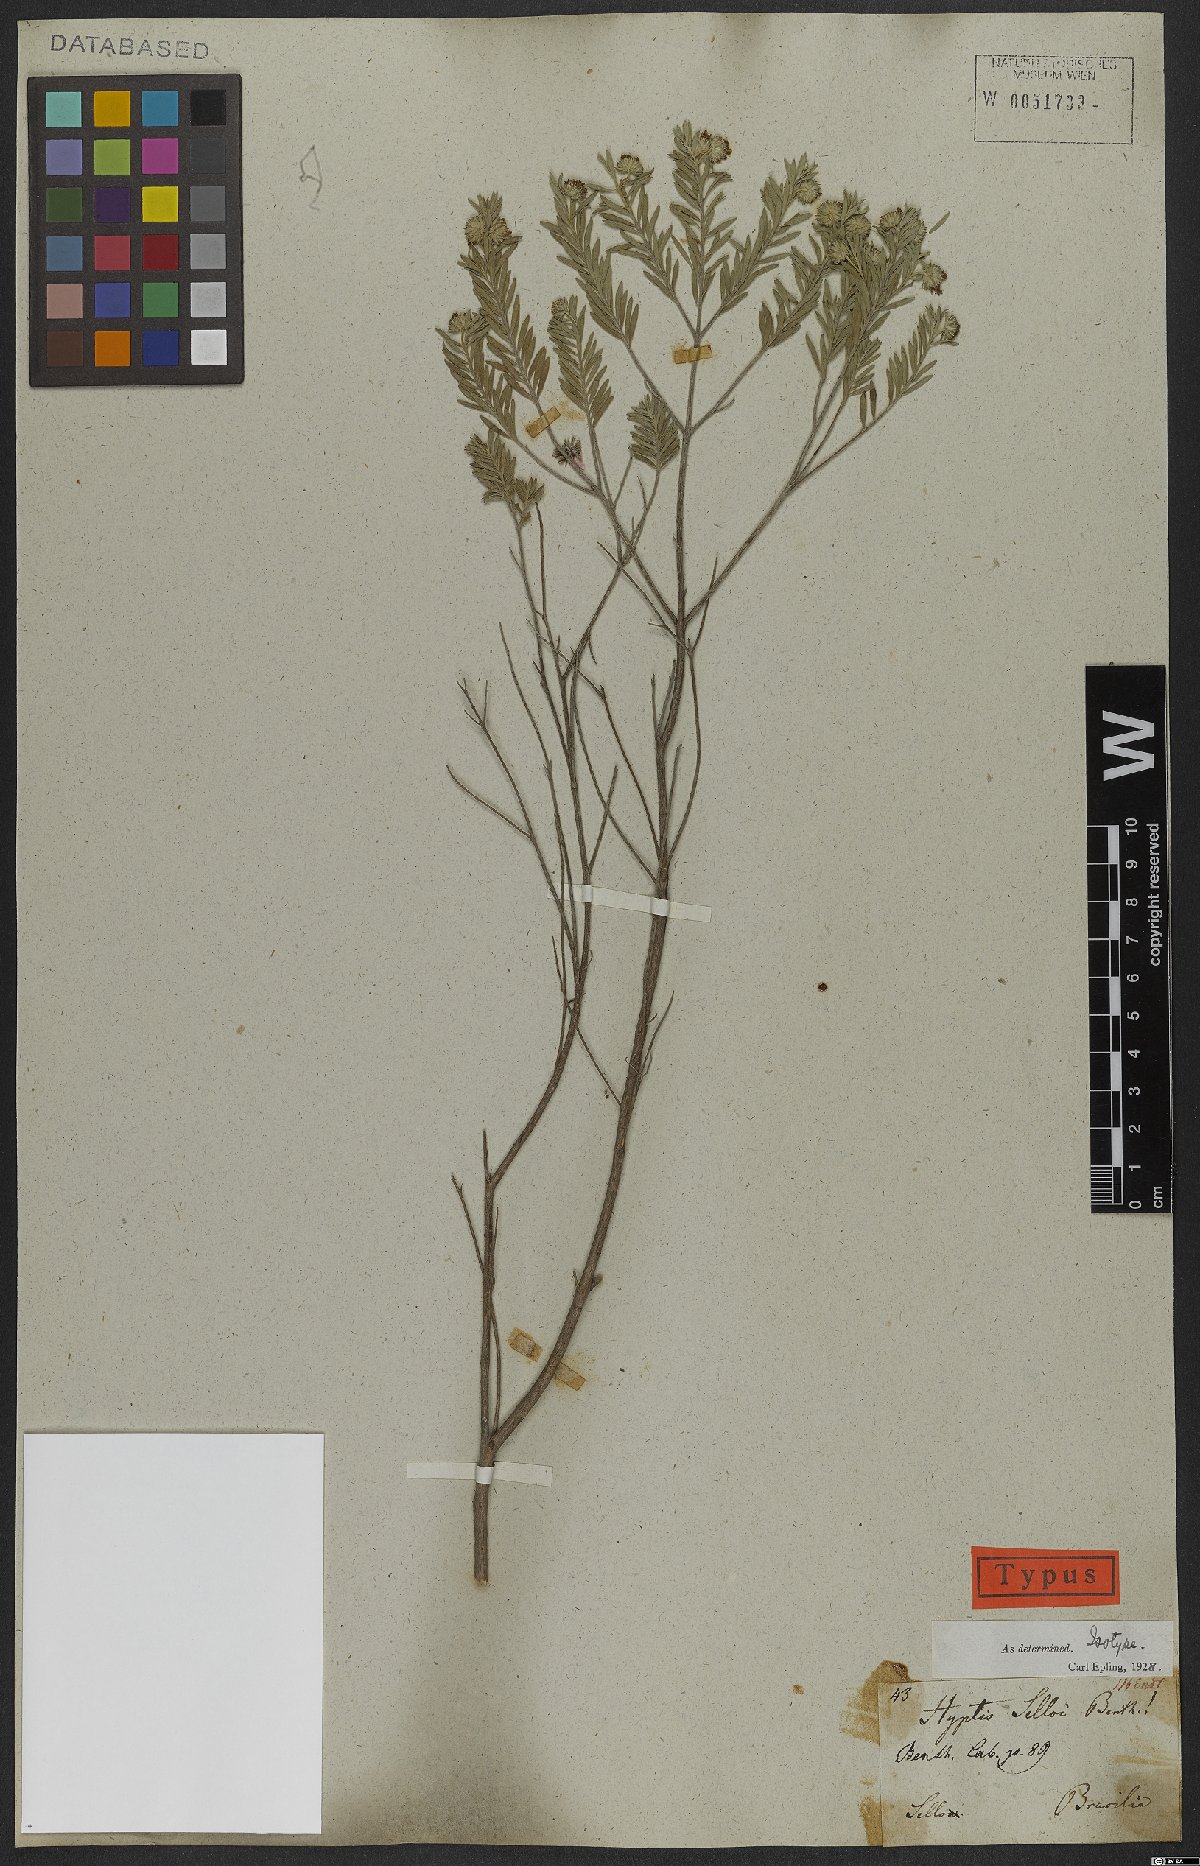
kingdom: Plantae
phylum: Tracheophyta
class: Magnoliopsida
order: Lamiales
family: Lamiaceae
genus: Hyptis
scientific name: Hyptis selloi
